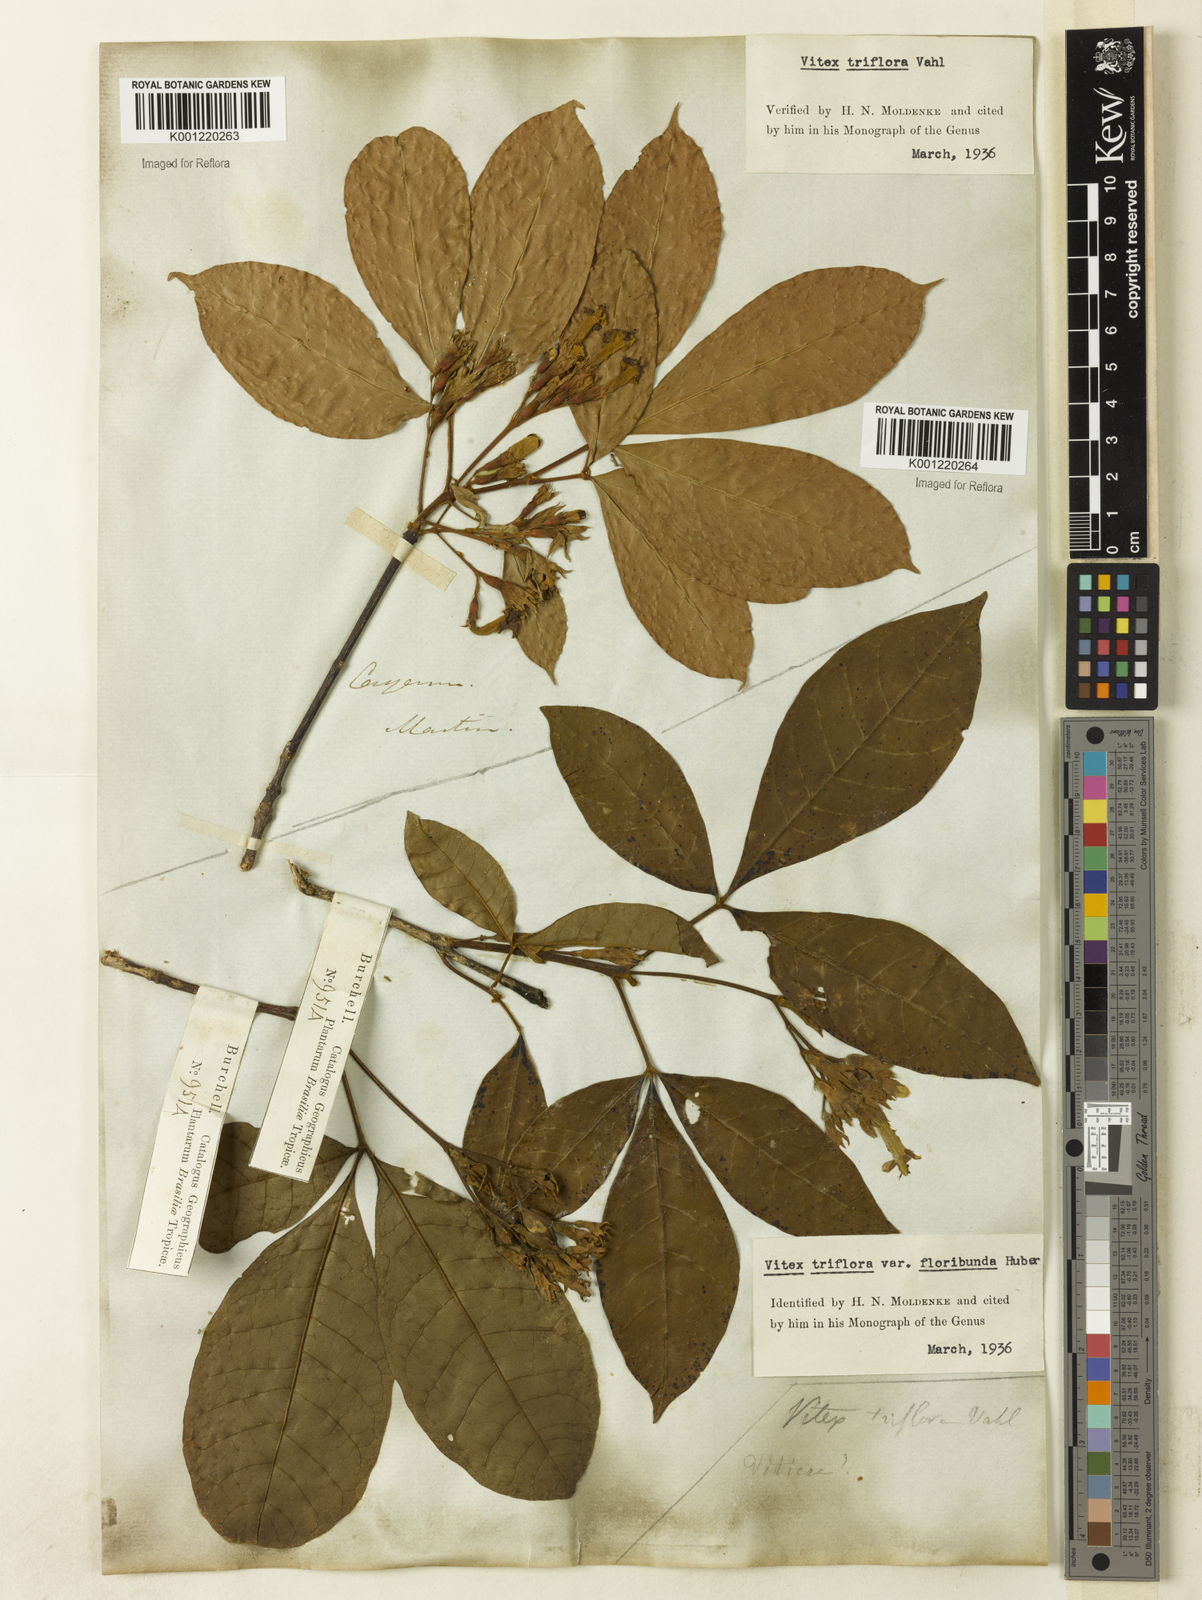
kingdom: Plantae
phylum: Tracheophyta
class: Magnoliopsida
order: Lamiales
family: Lamiaceae
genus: Vitex
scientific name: Vitex triflora
